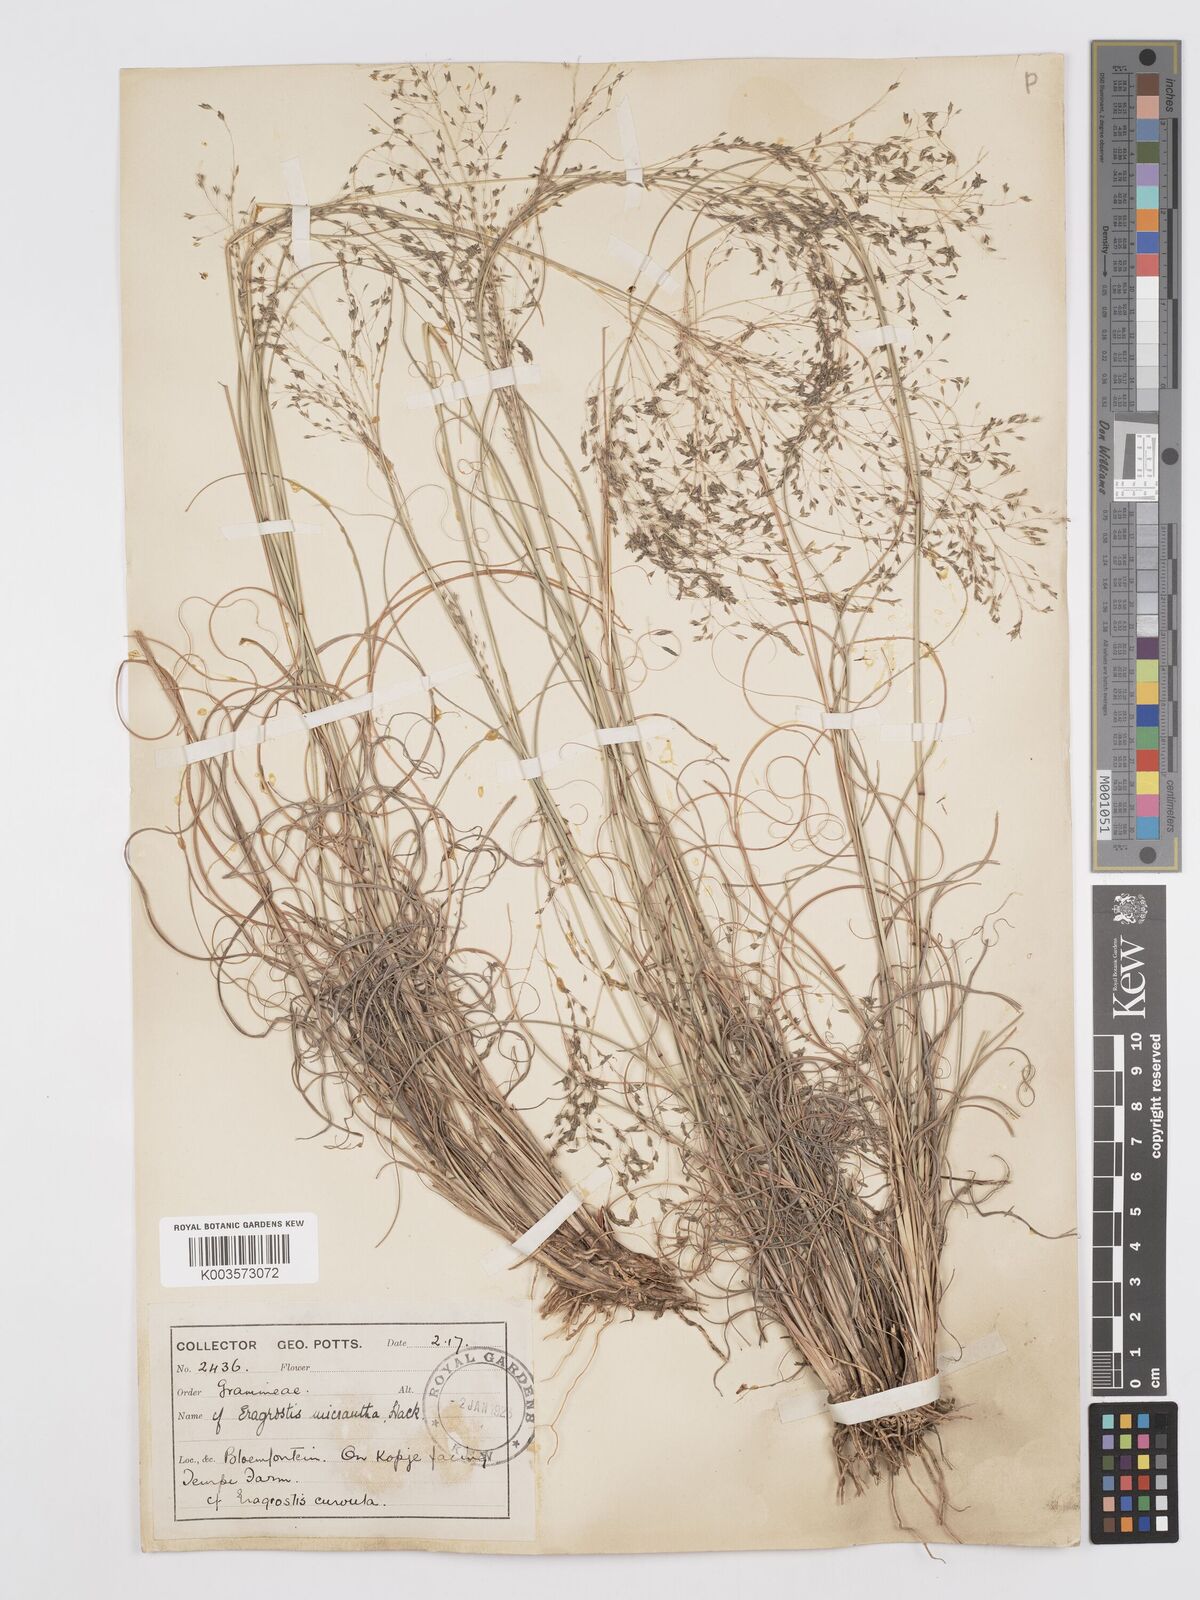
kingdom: Plantae
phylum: Tracheophyta
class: Liliopsida
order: Poales
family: Poaceae
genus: Eragrostis
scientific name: Eragrostis curvula
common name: African love-grass
